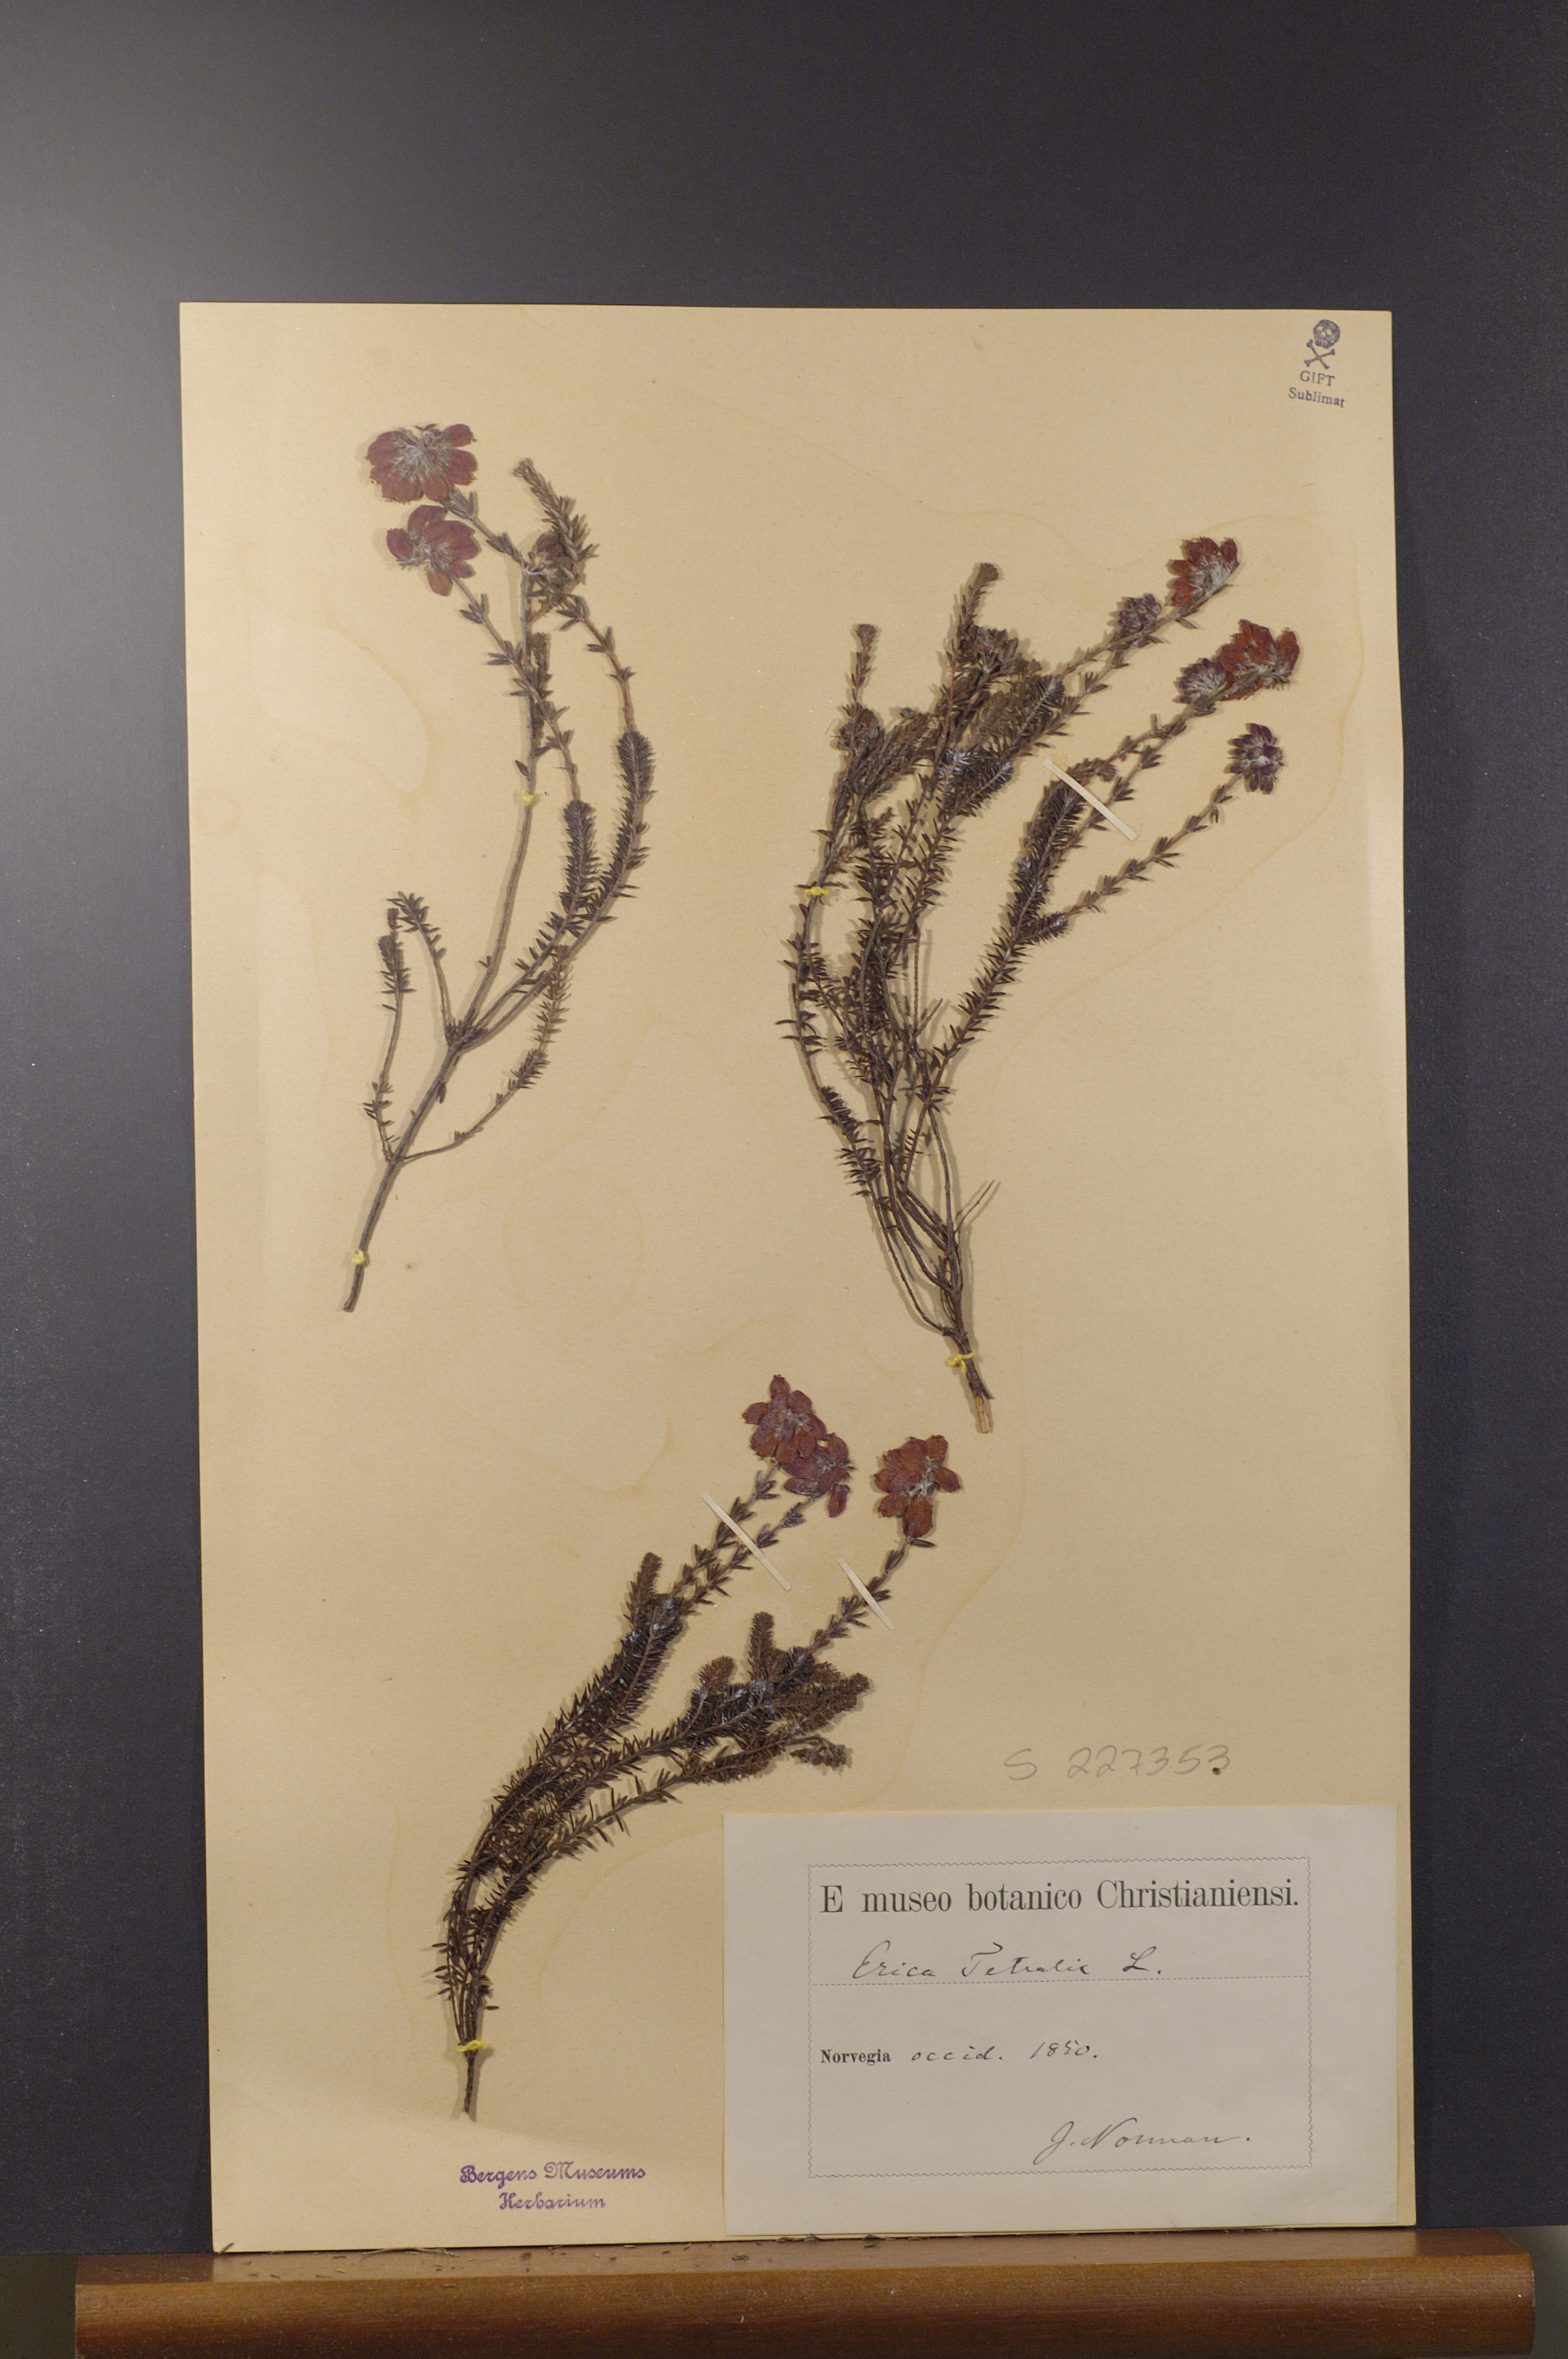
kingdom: Plantae
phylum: Tracheophyta
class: Magnoliopsida
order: Ericales
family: Ericaceae
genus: Erica
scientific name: Erica cinerea
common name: Bell heather
